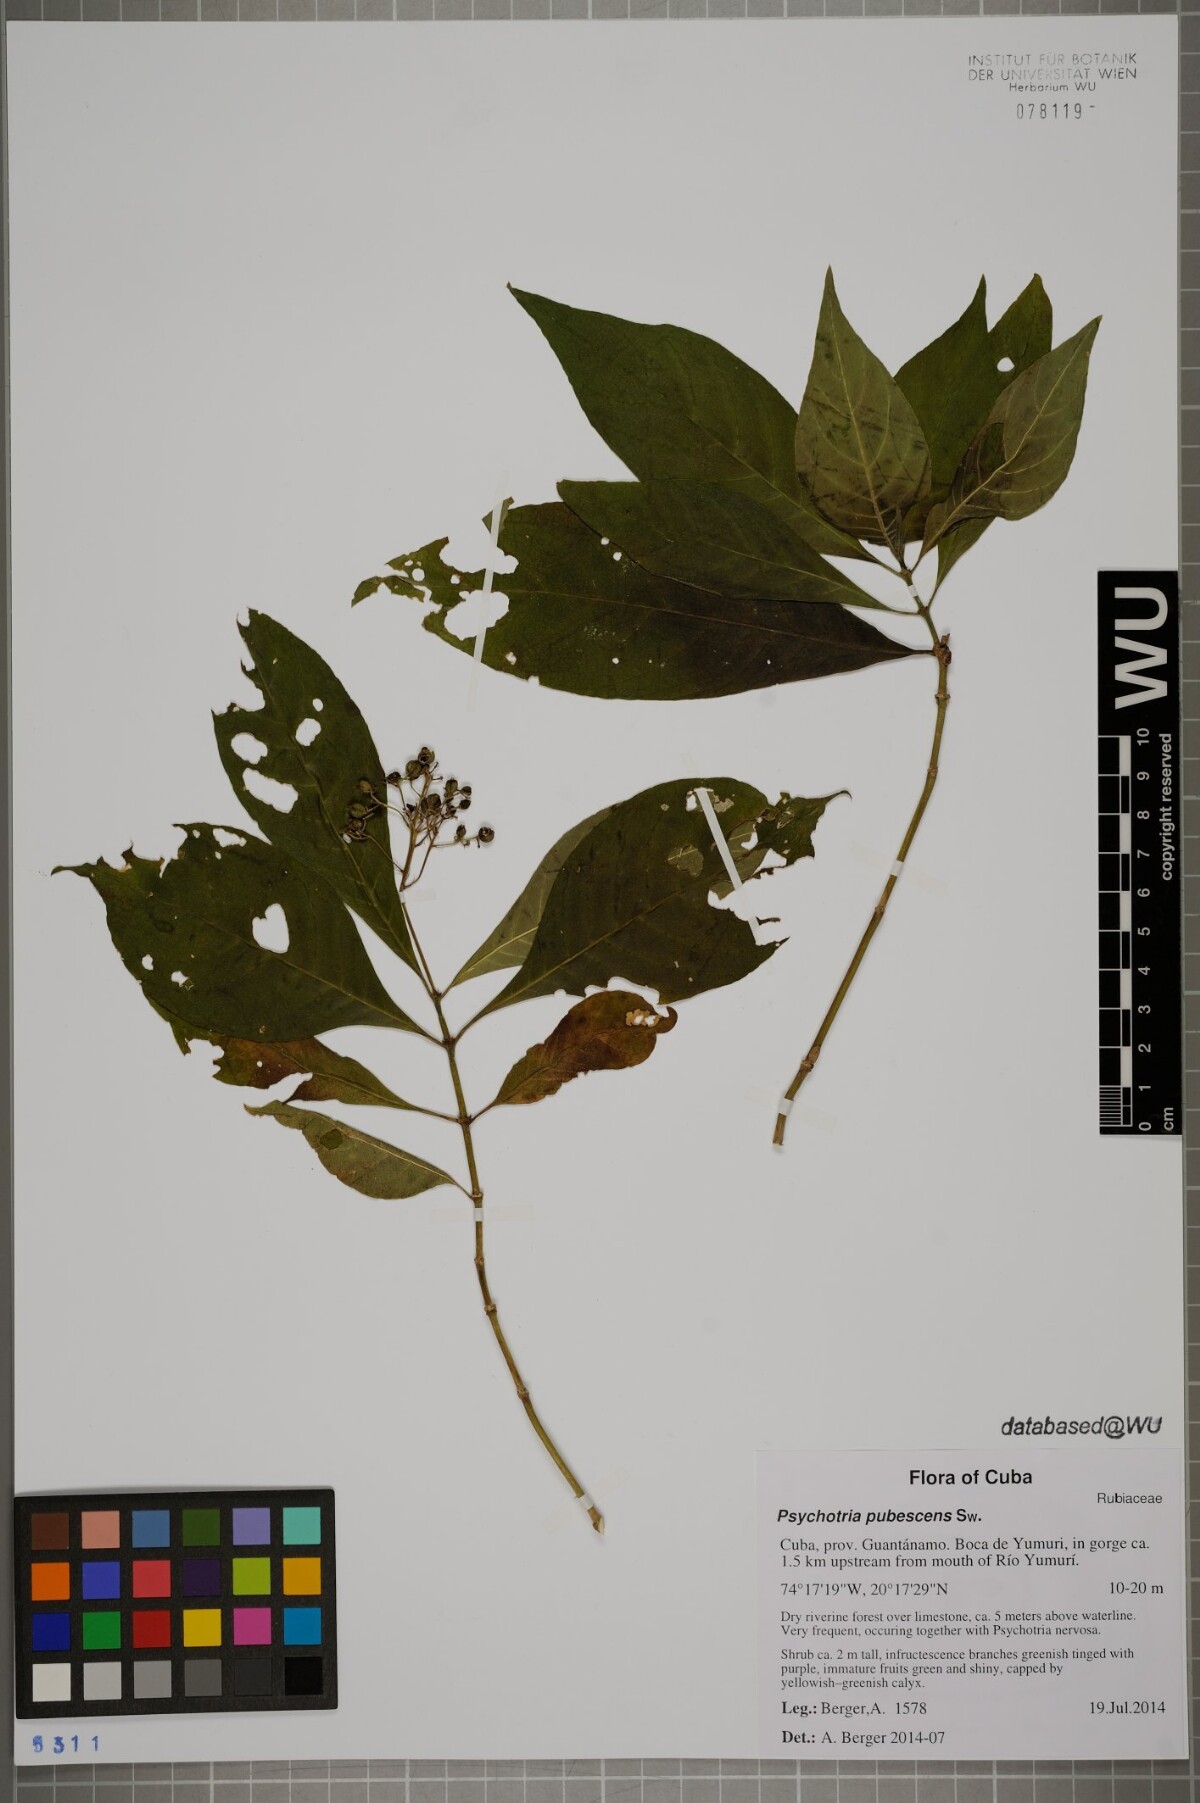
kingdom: Plantae
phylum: Tracheophyta
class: Magnoliopsida
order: Gentianales
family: Rubiaceae
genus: Palicourea
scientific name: Palicourea pubescens
